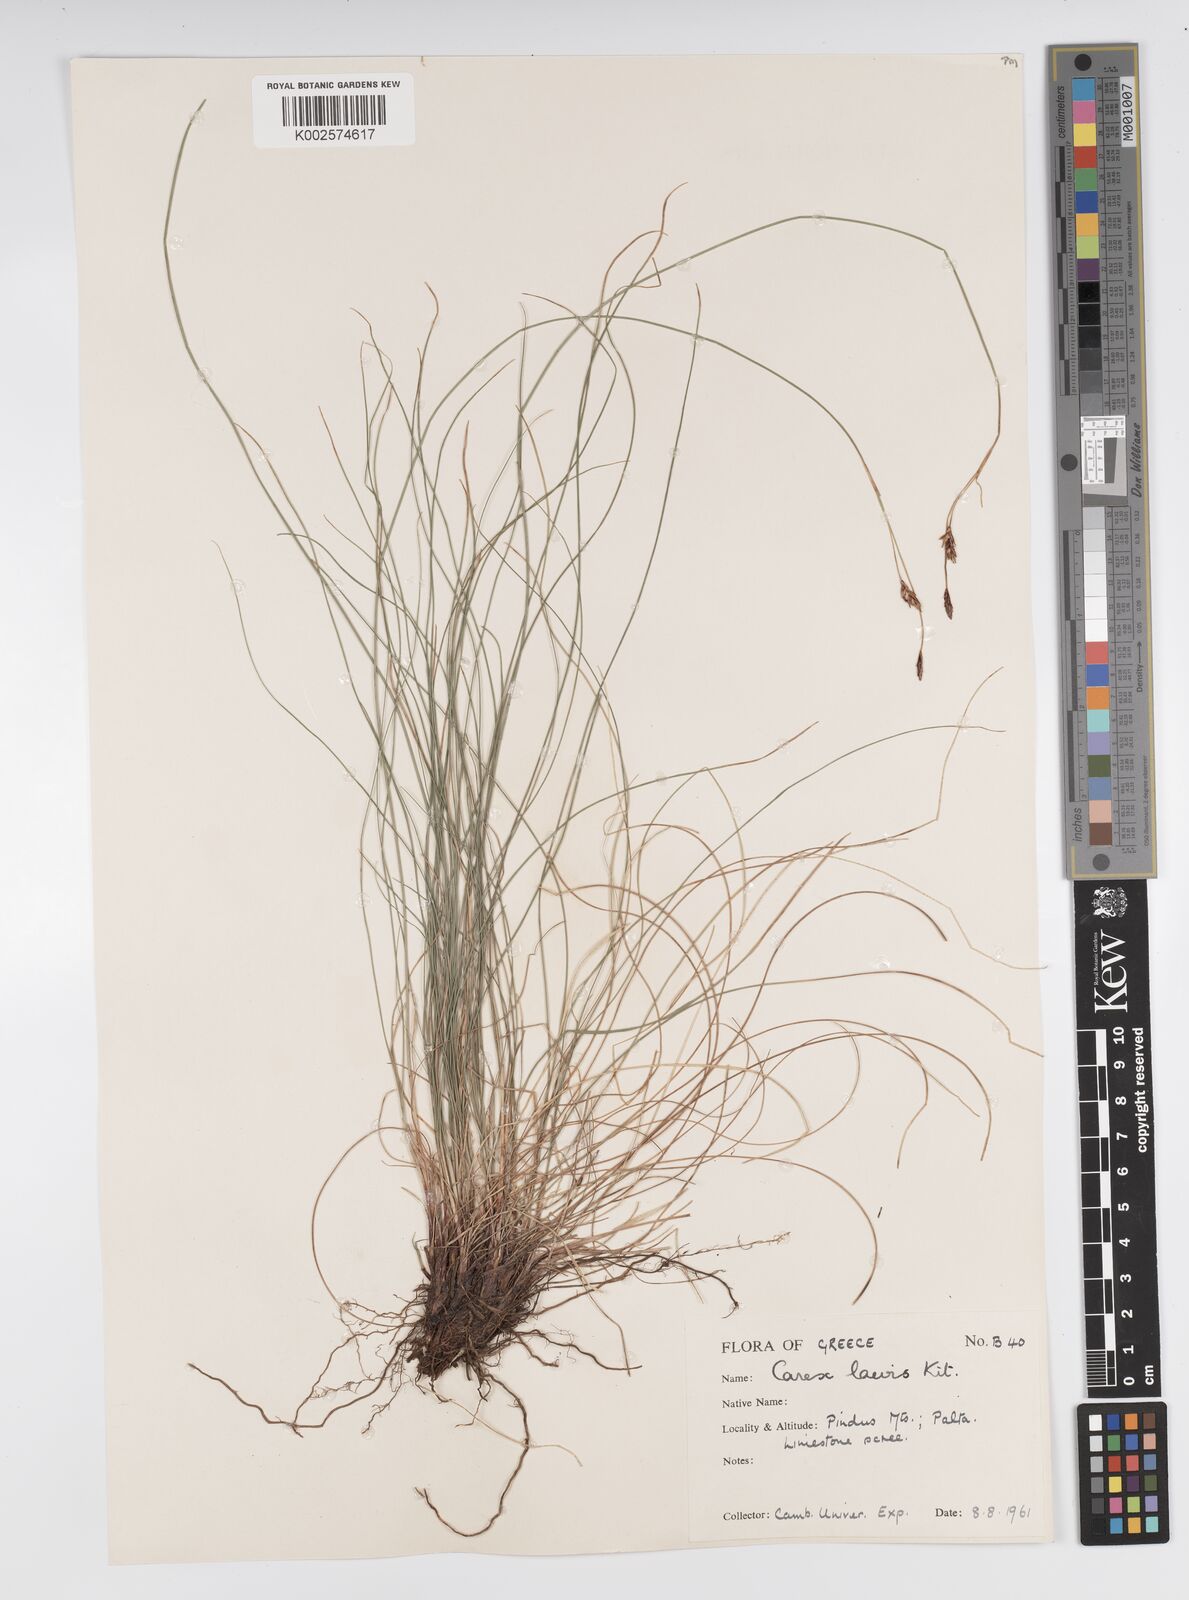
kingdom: Plantae
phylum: Tracheophyta
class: Liliopsida
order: Poales
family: Cyperaceae
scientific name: Cyperaceae
